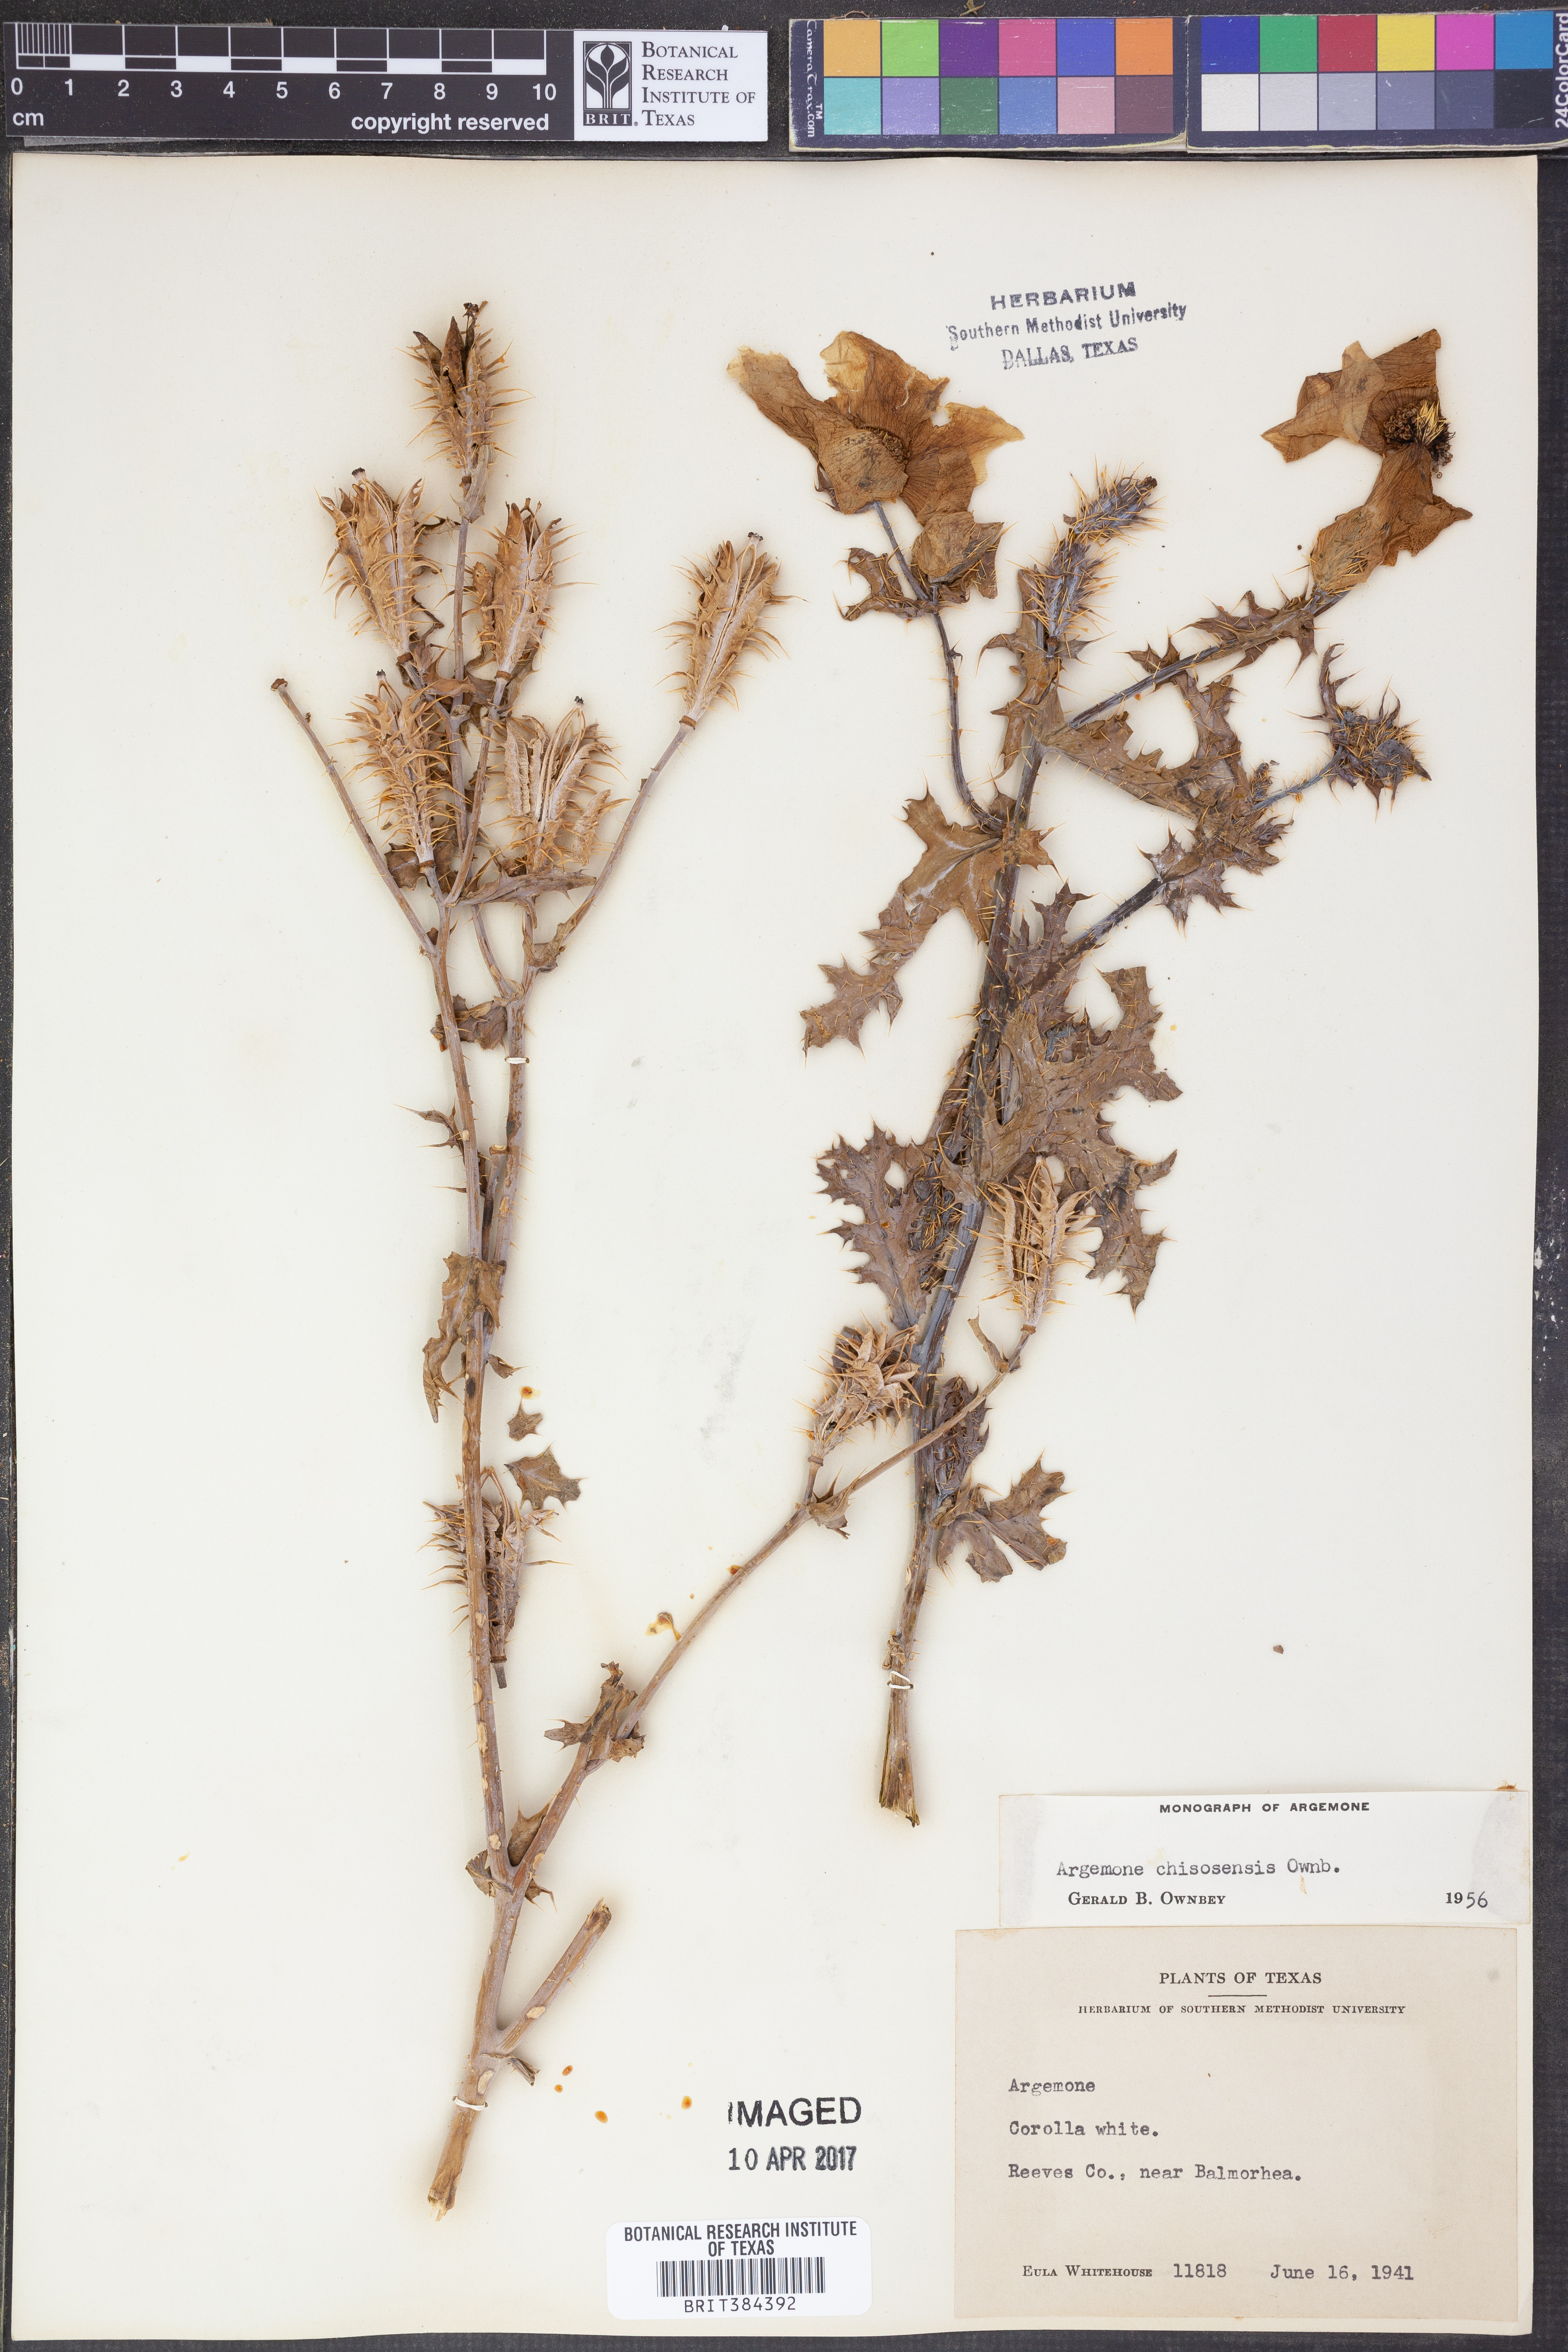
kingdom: Plantae
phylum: Tracheophyta
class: Magnoliopsida
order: Ranunculales
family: Papaveraceae
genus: Argemone
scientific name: Argemone chisosensis
